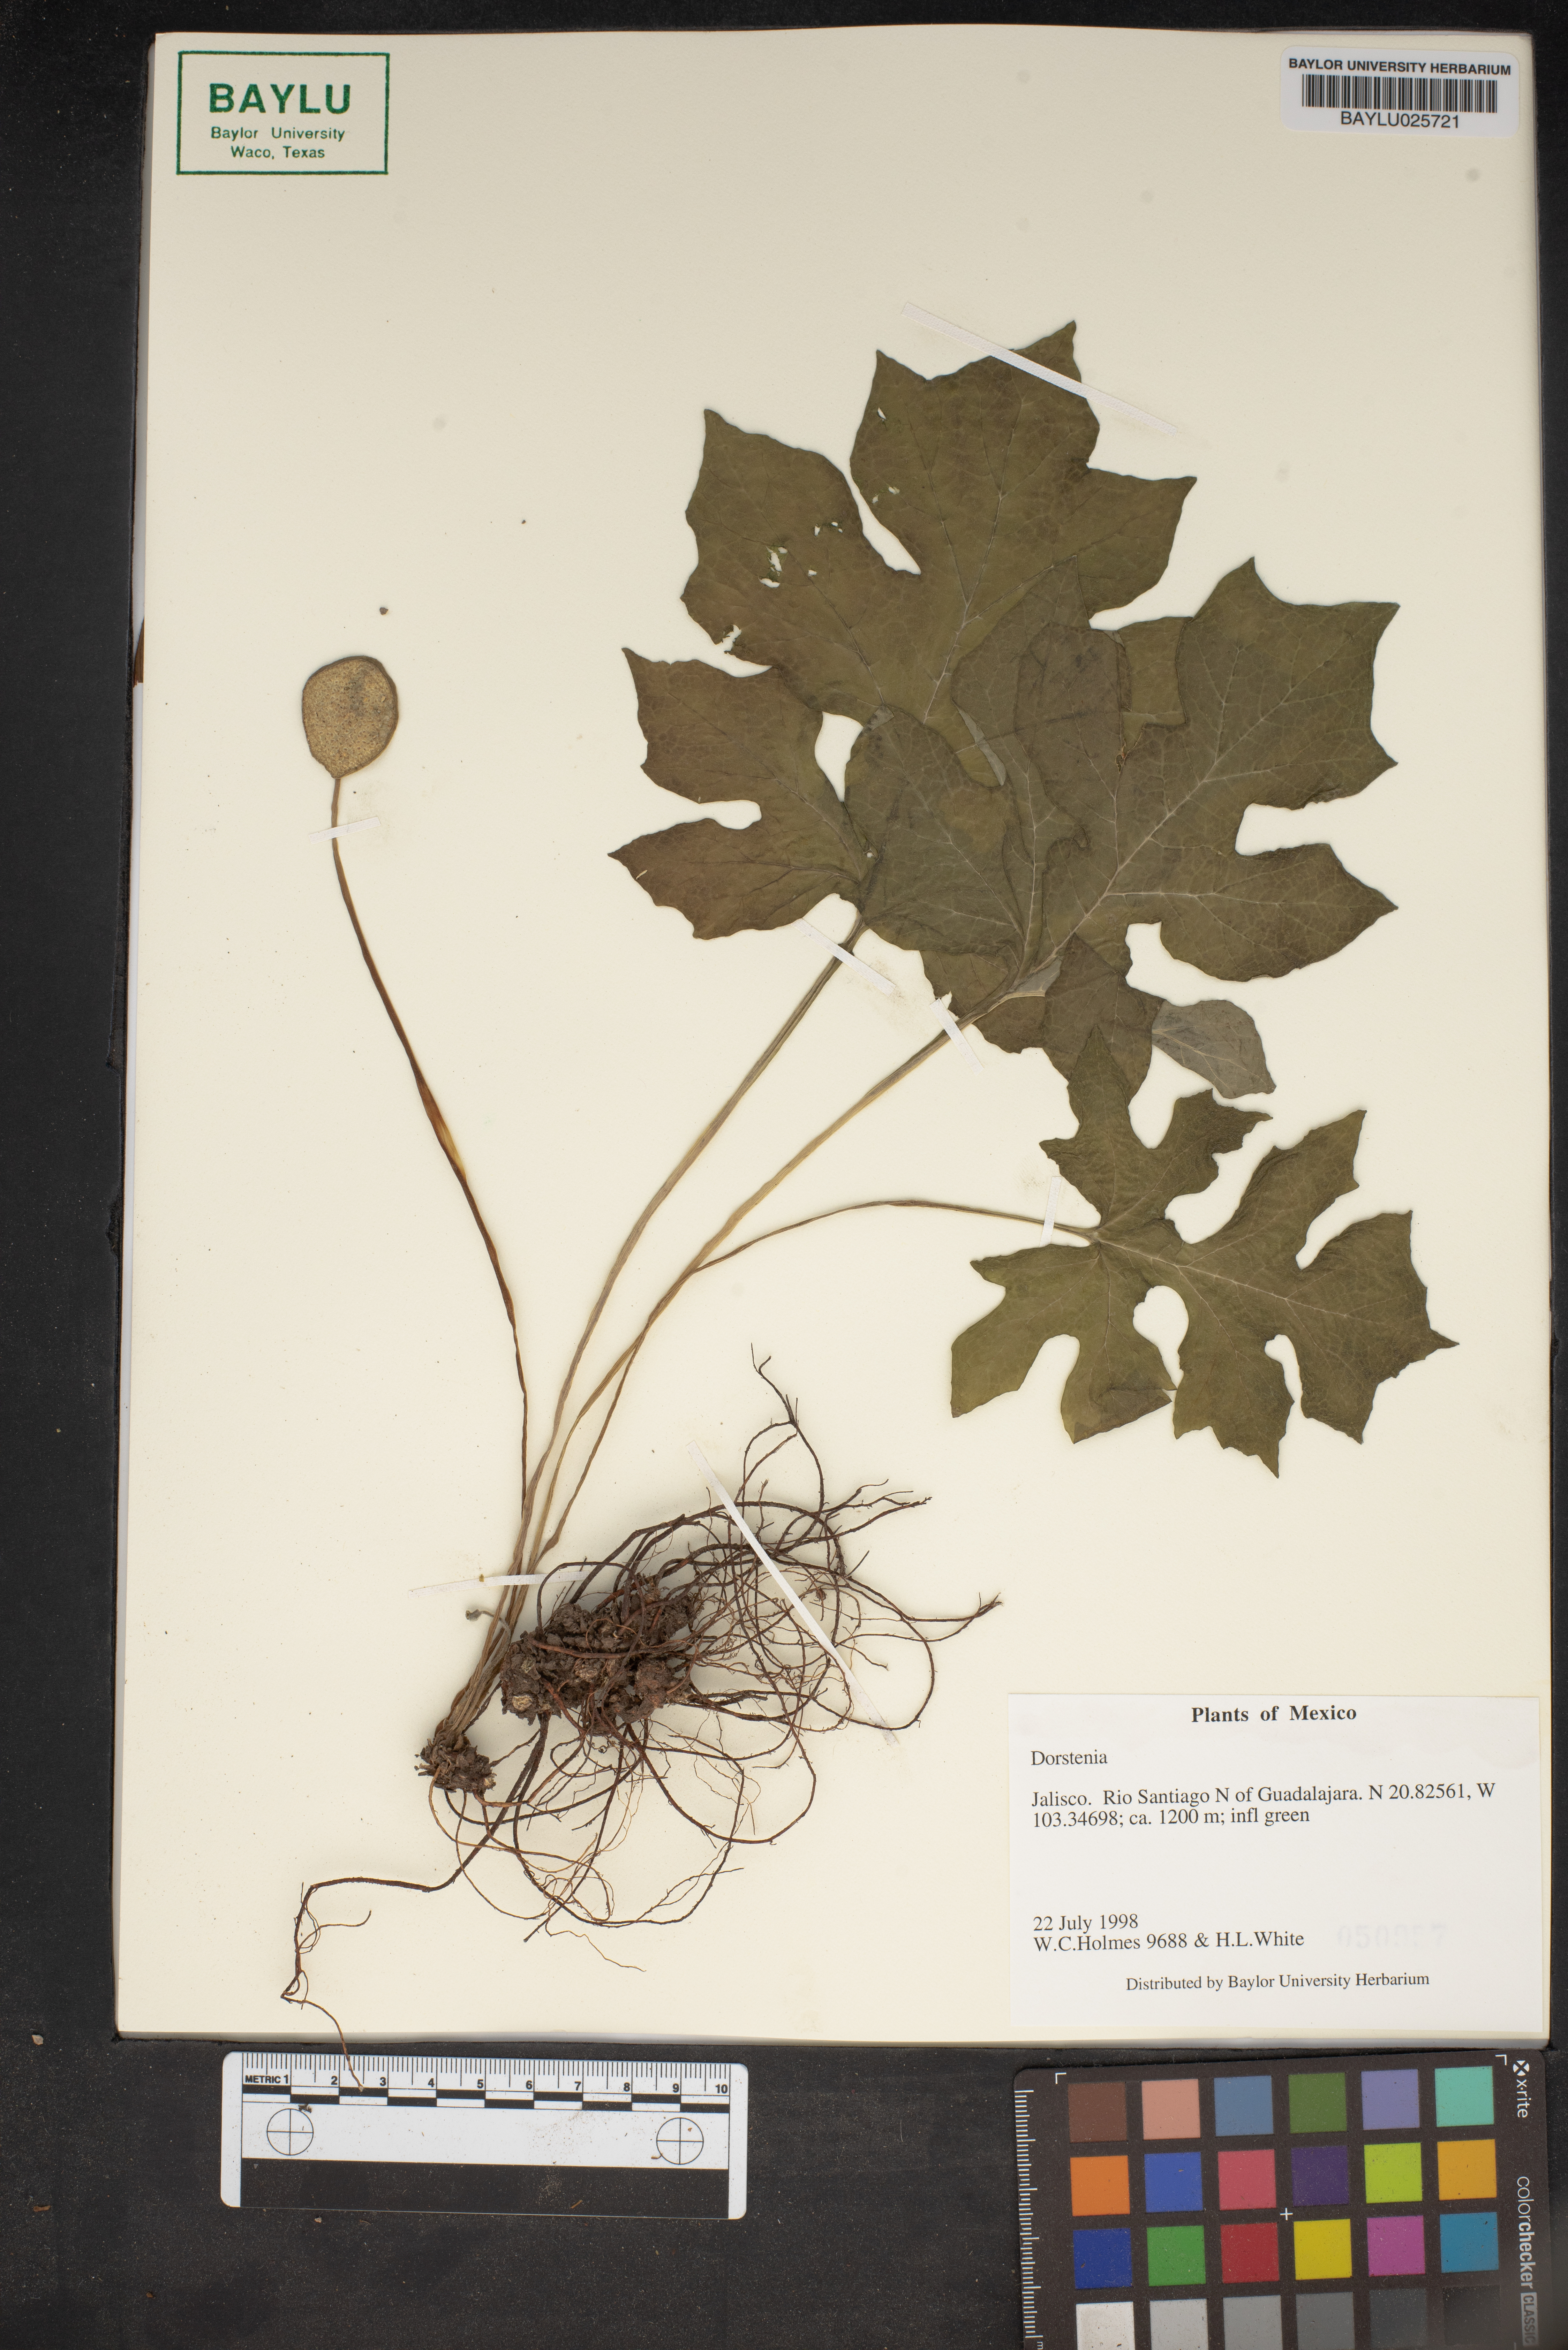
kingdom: Plantae
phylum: Tracheophyta
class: Magnoliopsida
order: Rosales
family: Moraceae
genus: Dorstenia
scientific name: Dorstenia
